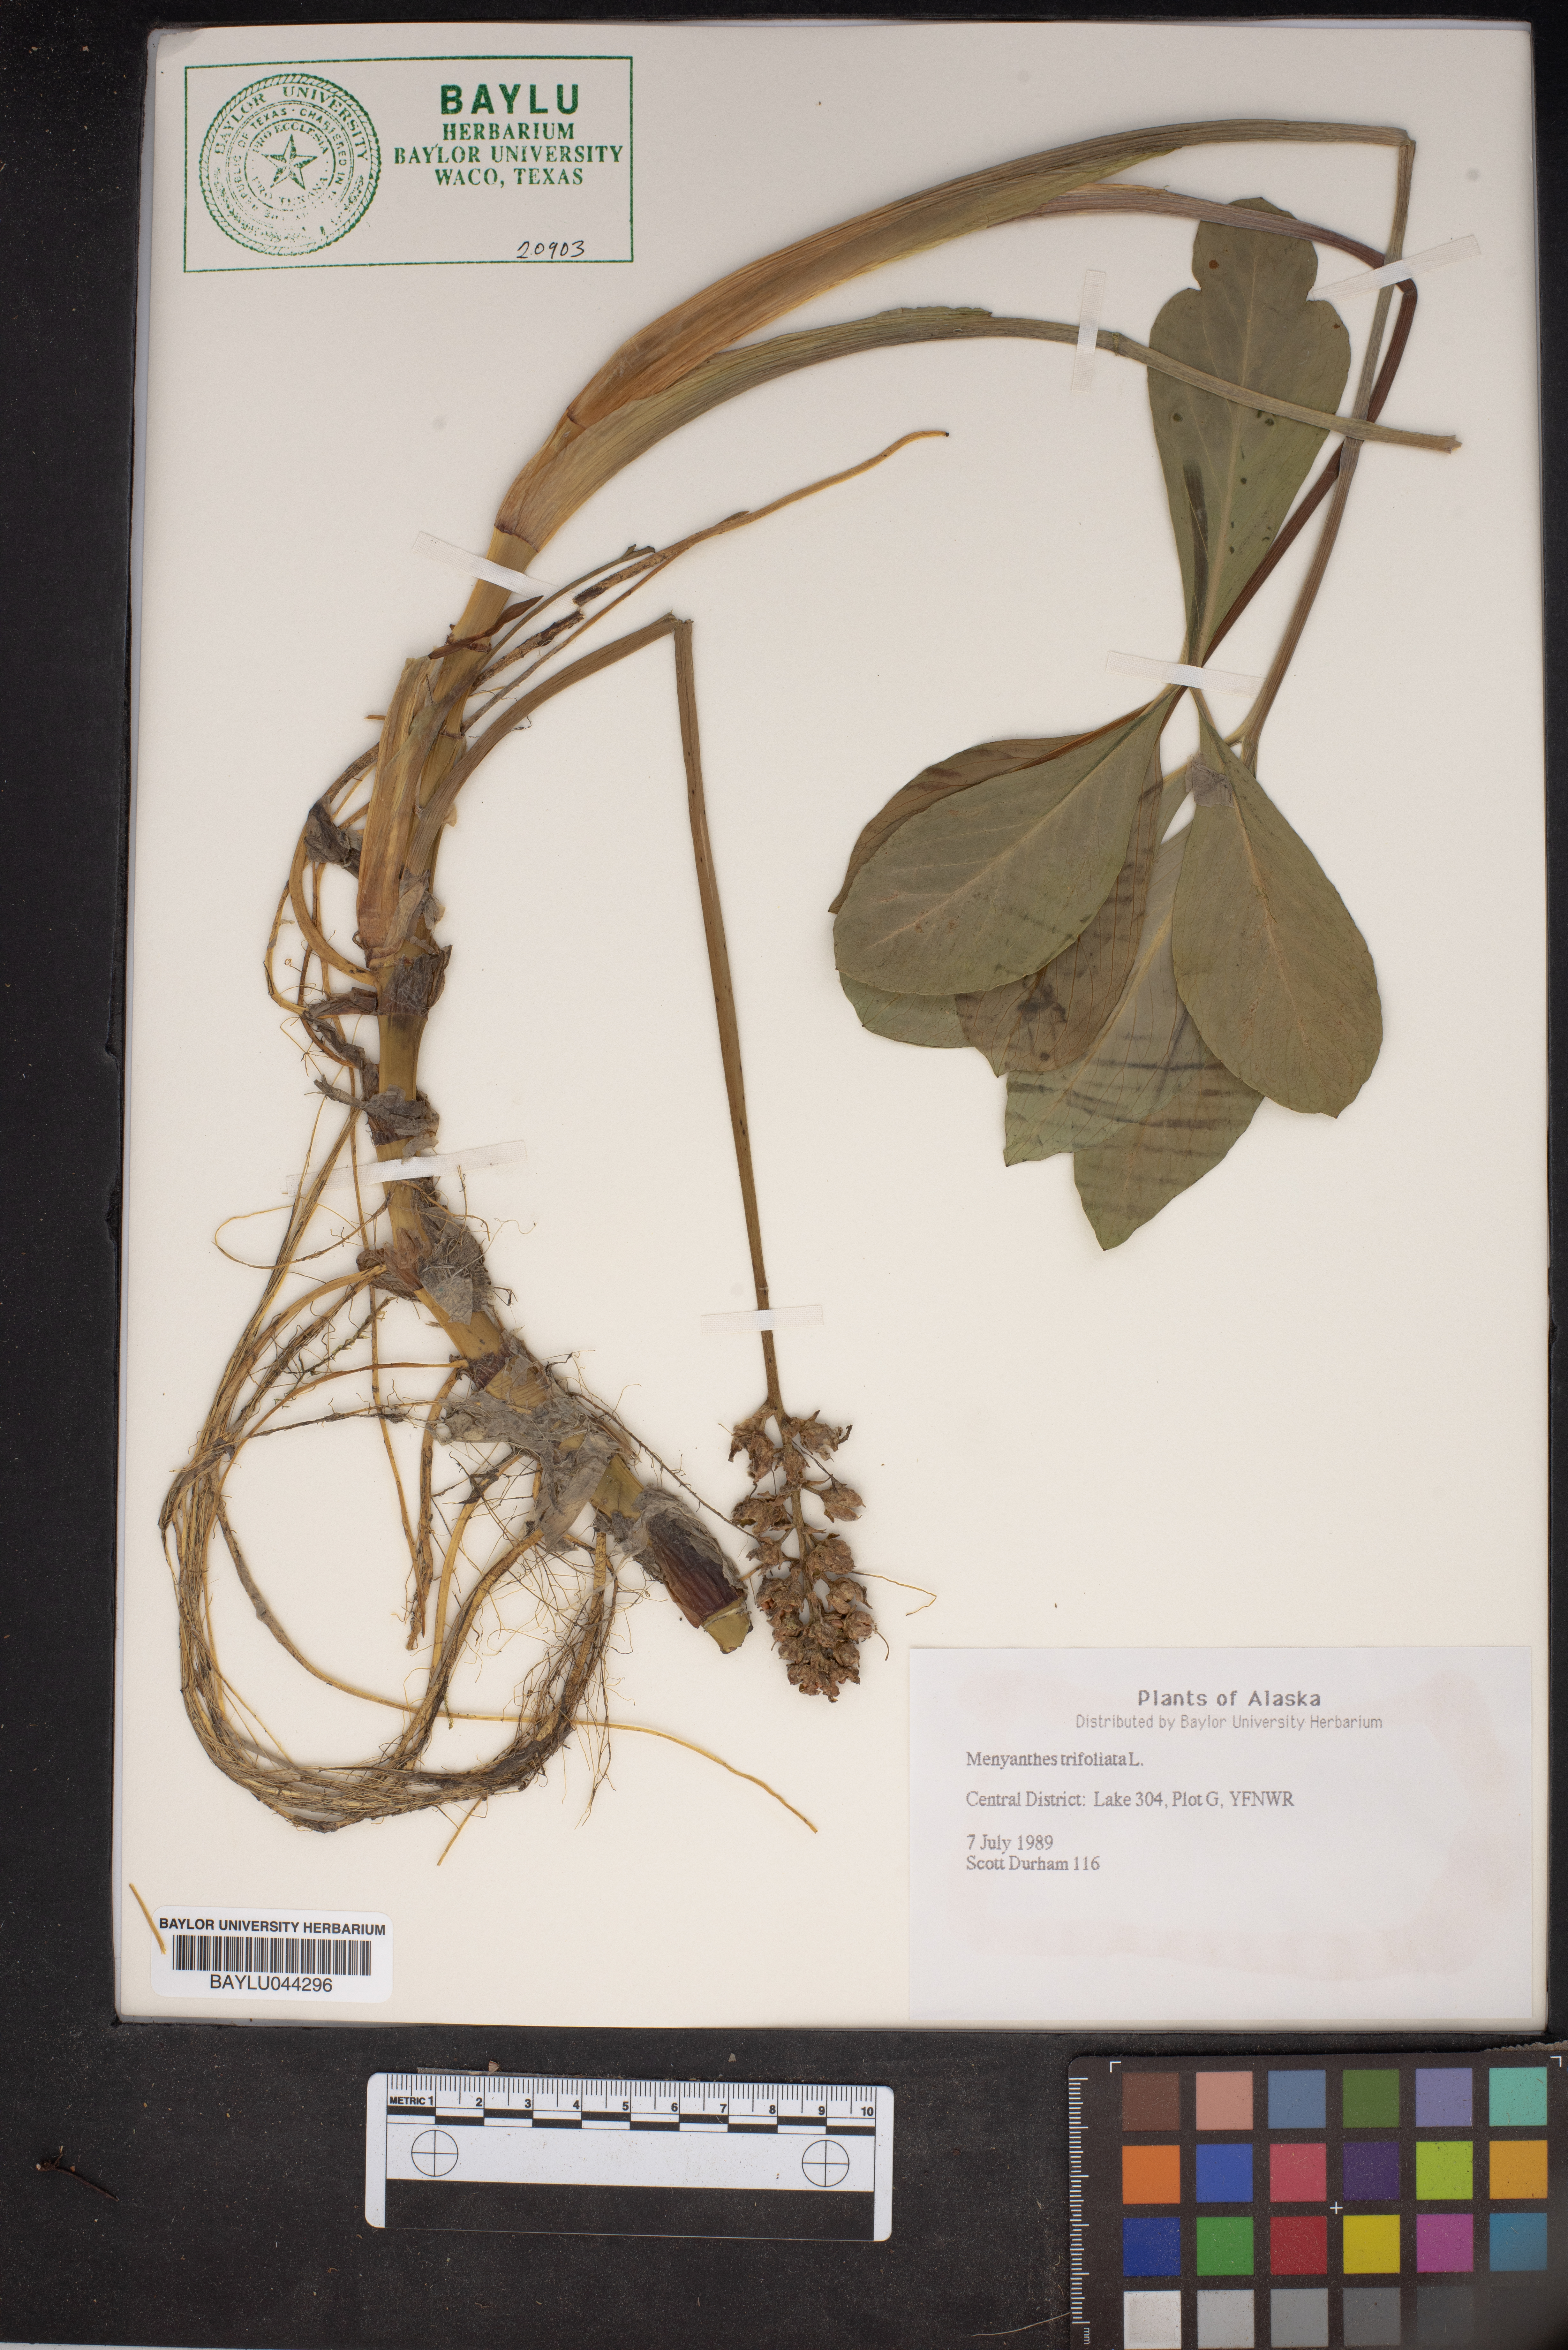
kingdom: Plantae
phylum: Tracheophyta
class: Magnoliopsida
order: Asterales
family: Menyanthaceae
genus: Menyanthes
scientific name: Menyanthes trifoliata
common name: Bogbean
